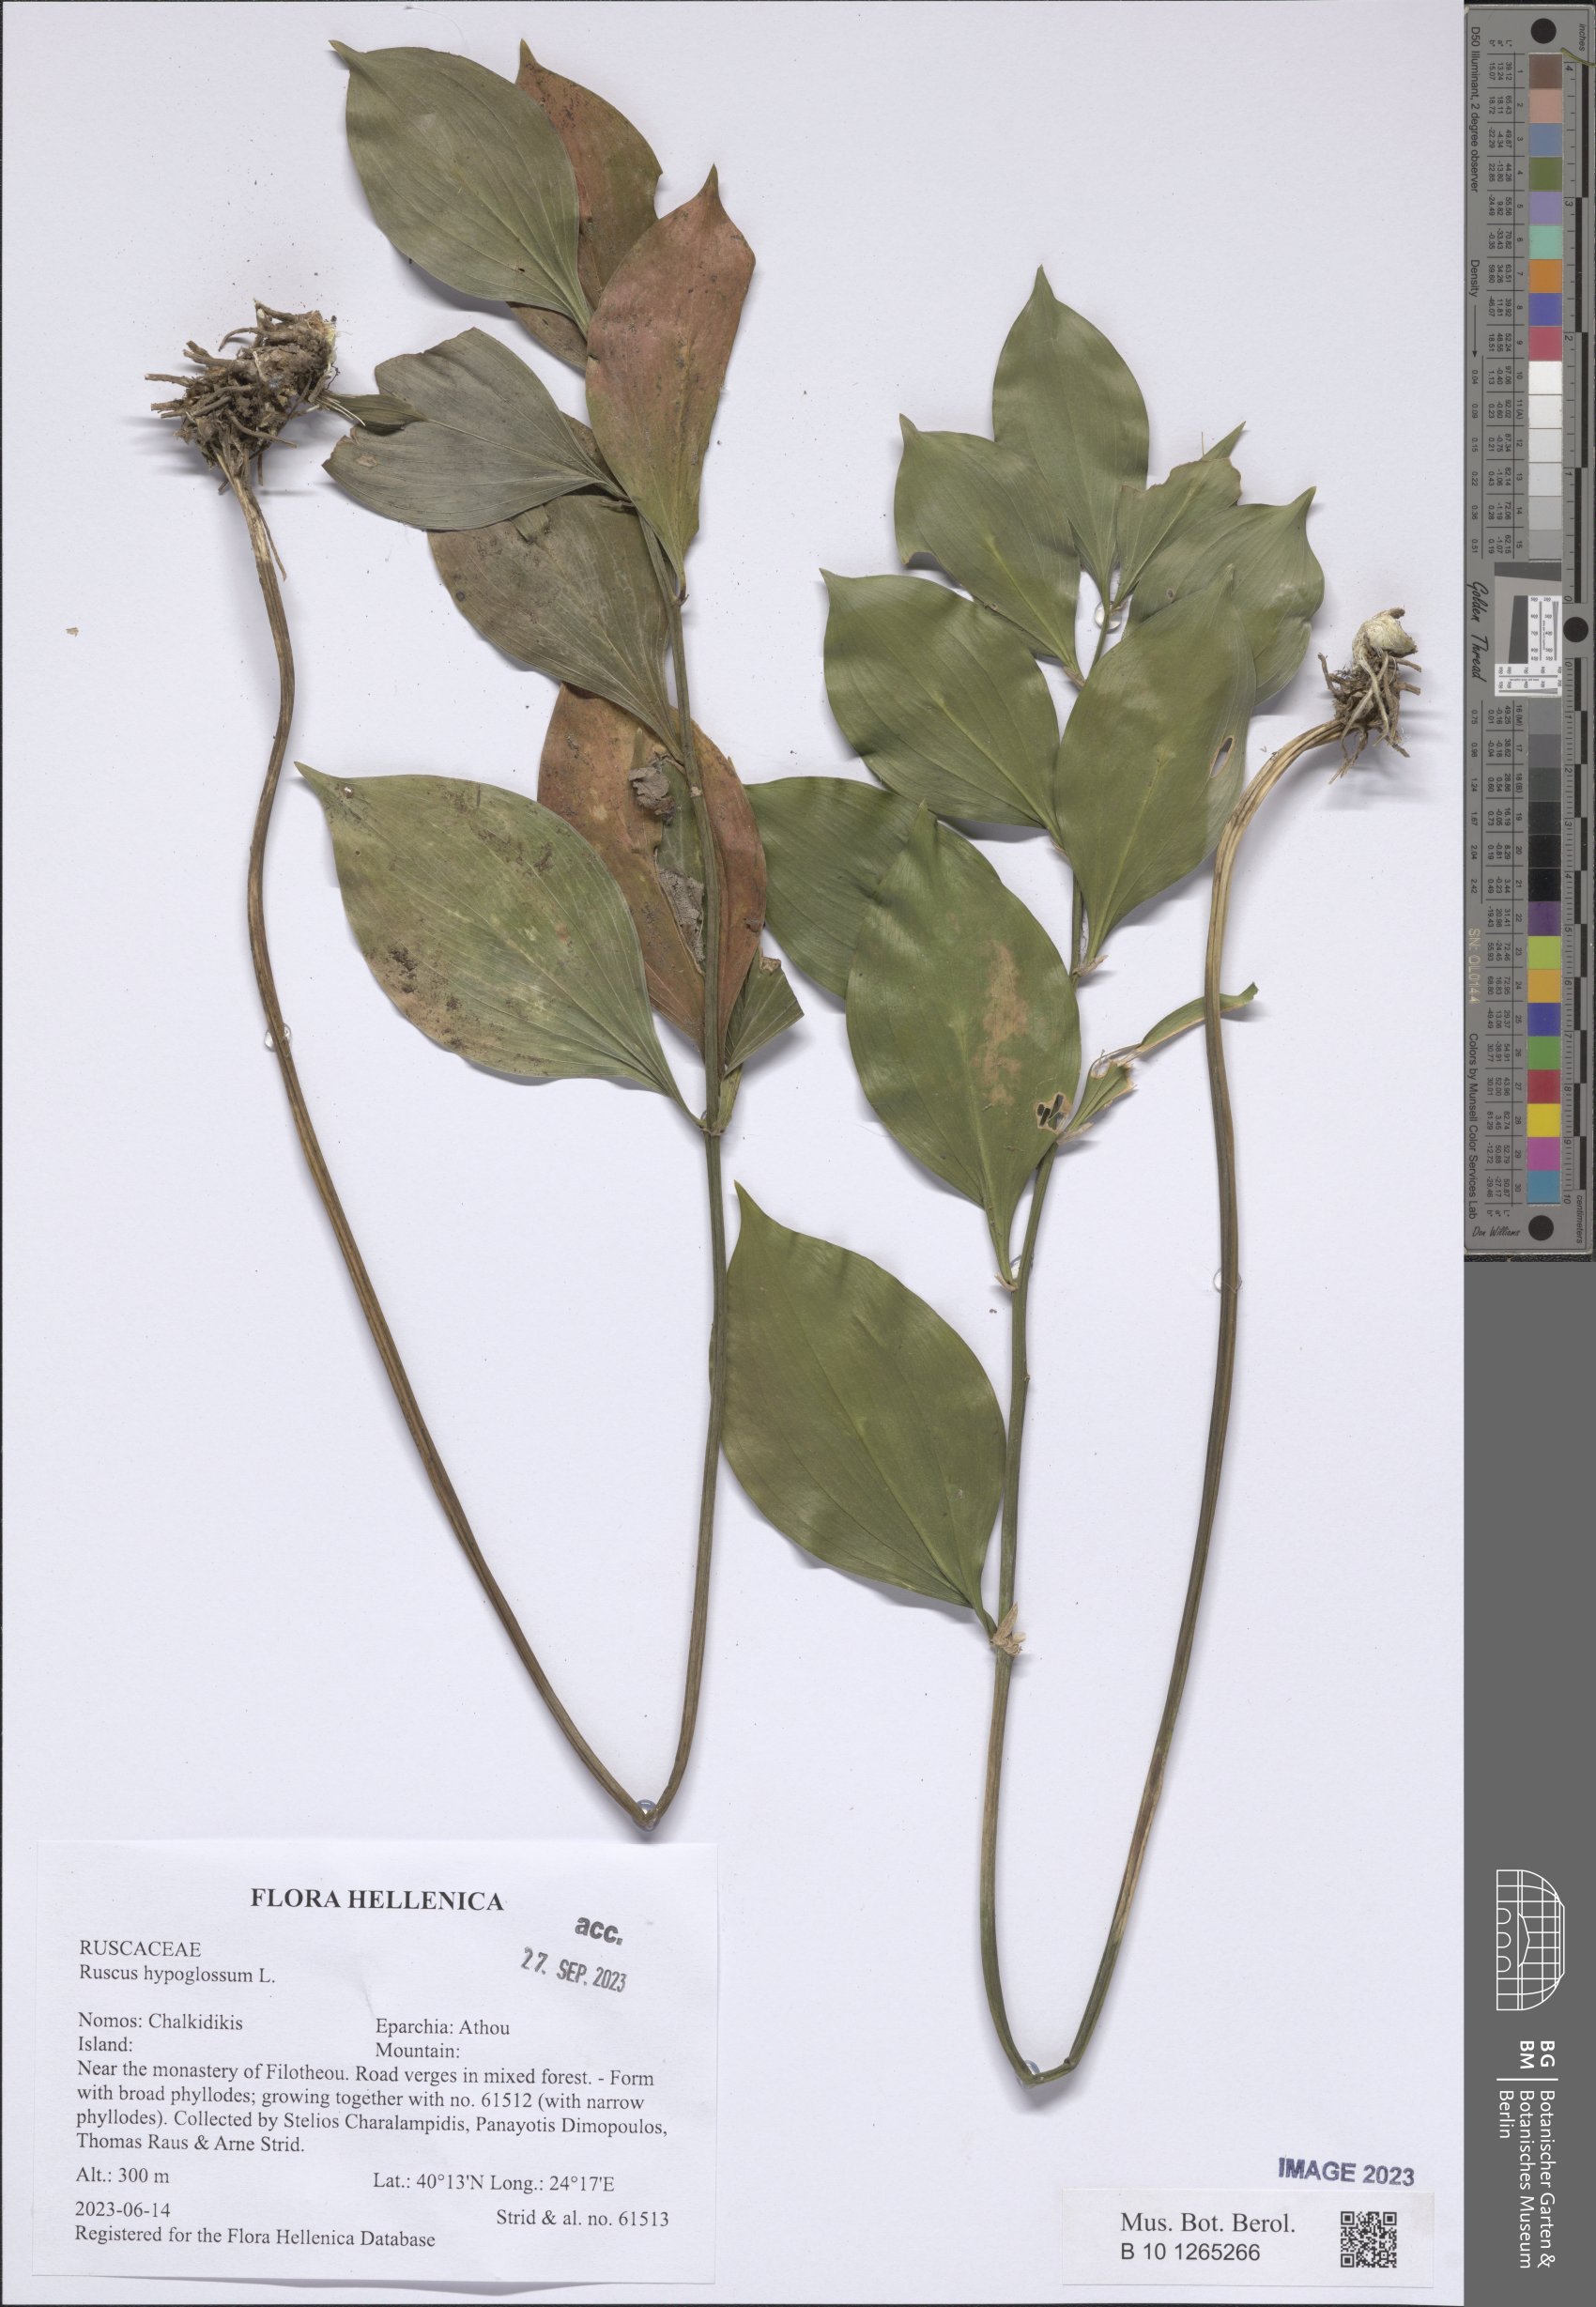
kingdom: Plantae
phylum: Tracheophyta
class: Liliopsida
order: Asparagales
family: Asparagaceae
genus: Ruscus
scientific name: Ruscus hypoglossum
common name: Spineless butcher's-broom
